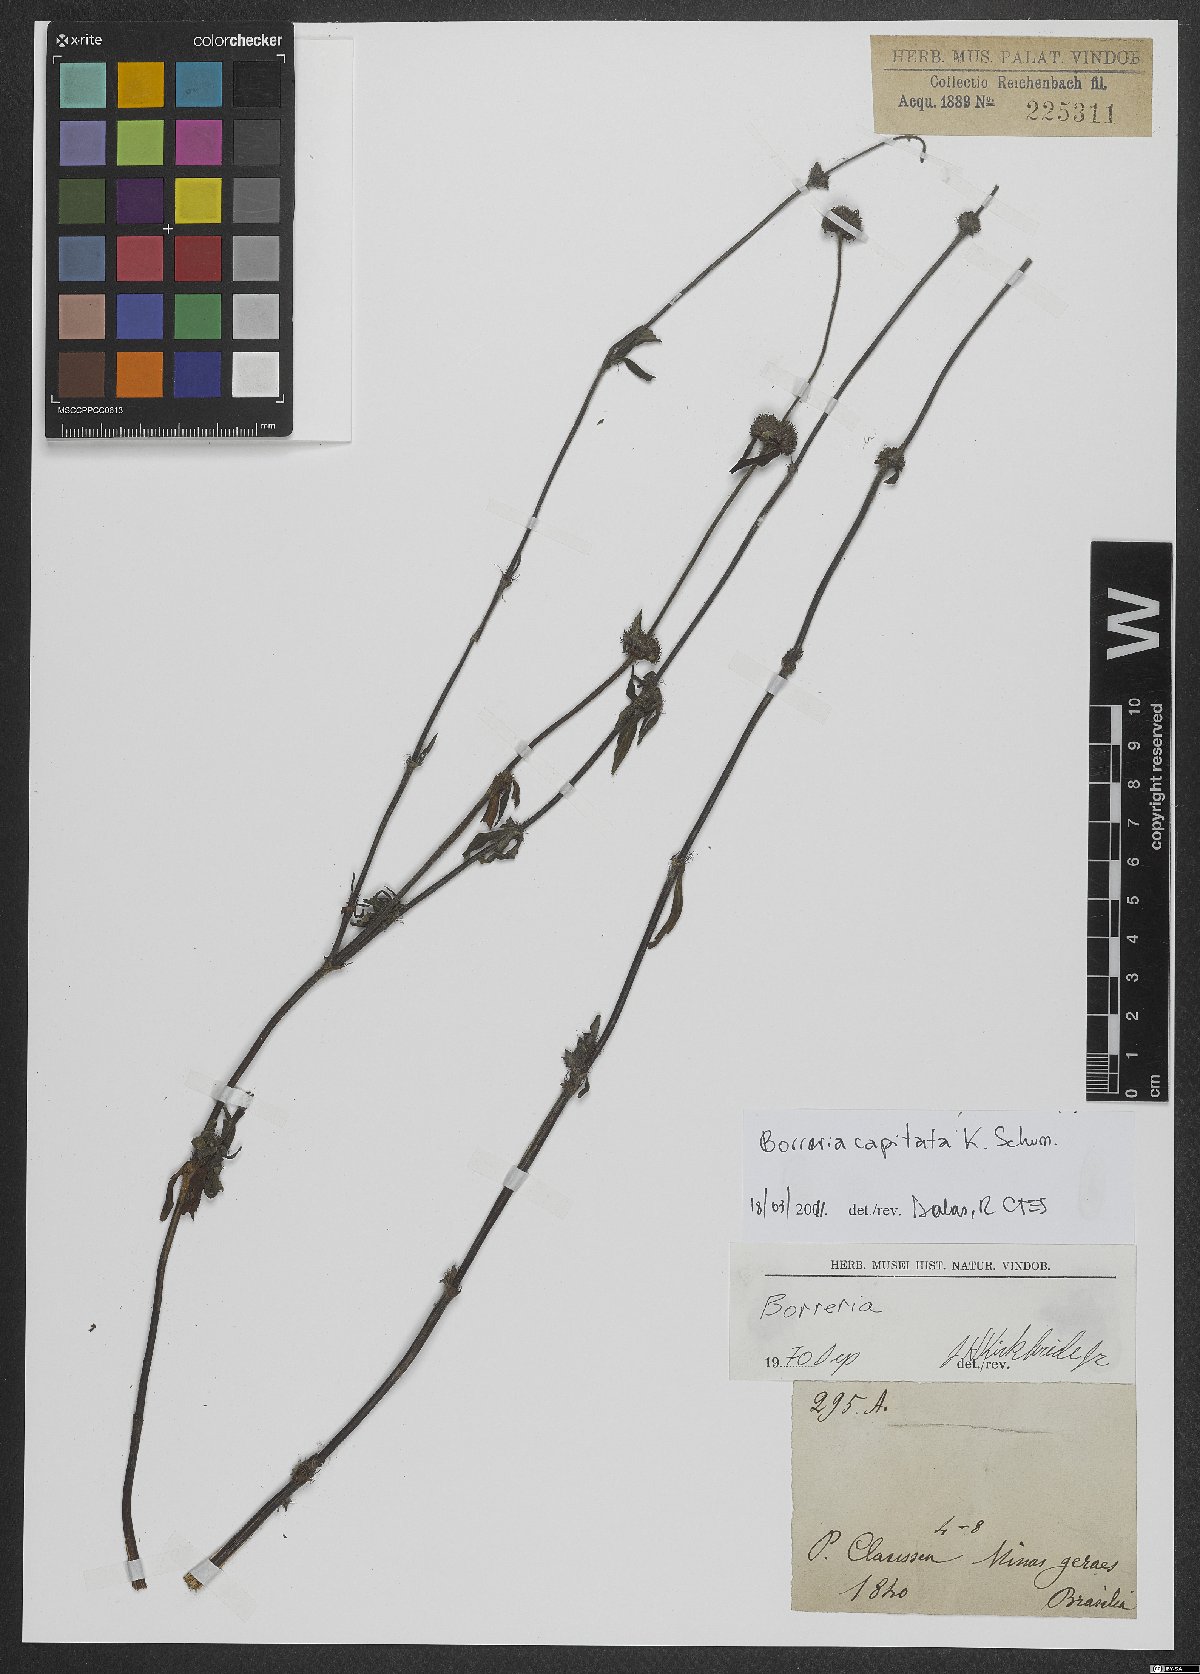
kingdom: Plantae
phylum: Tracheophyta
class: Magnoliopsida
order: Gentianales
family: Rubiaceae
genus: Spermacoce
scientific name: Spermacoce capitata
